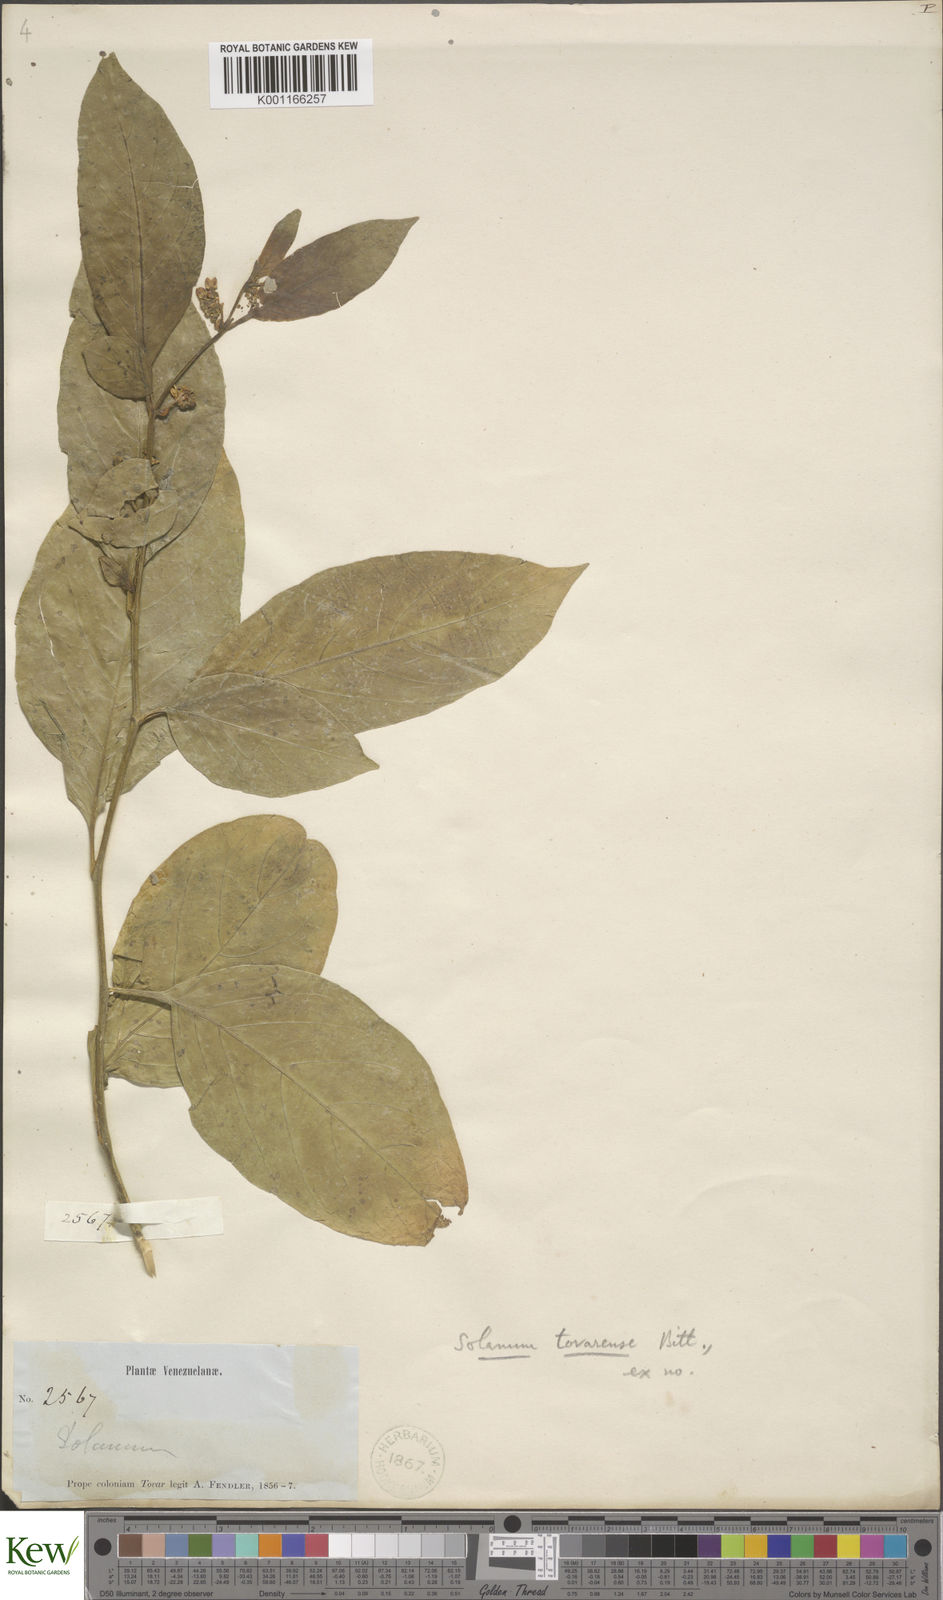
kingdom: Plantae
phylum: Tracheophyta
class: Magnoliopsida
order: Solanales
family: Solanaceae
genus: Solanum
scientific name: Solanum nudum
